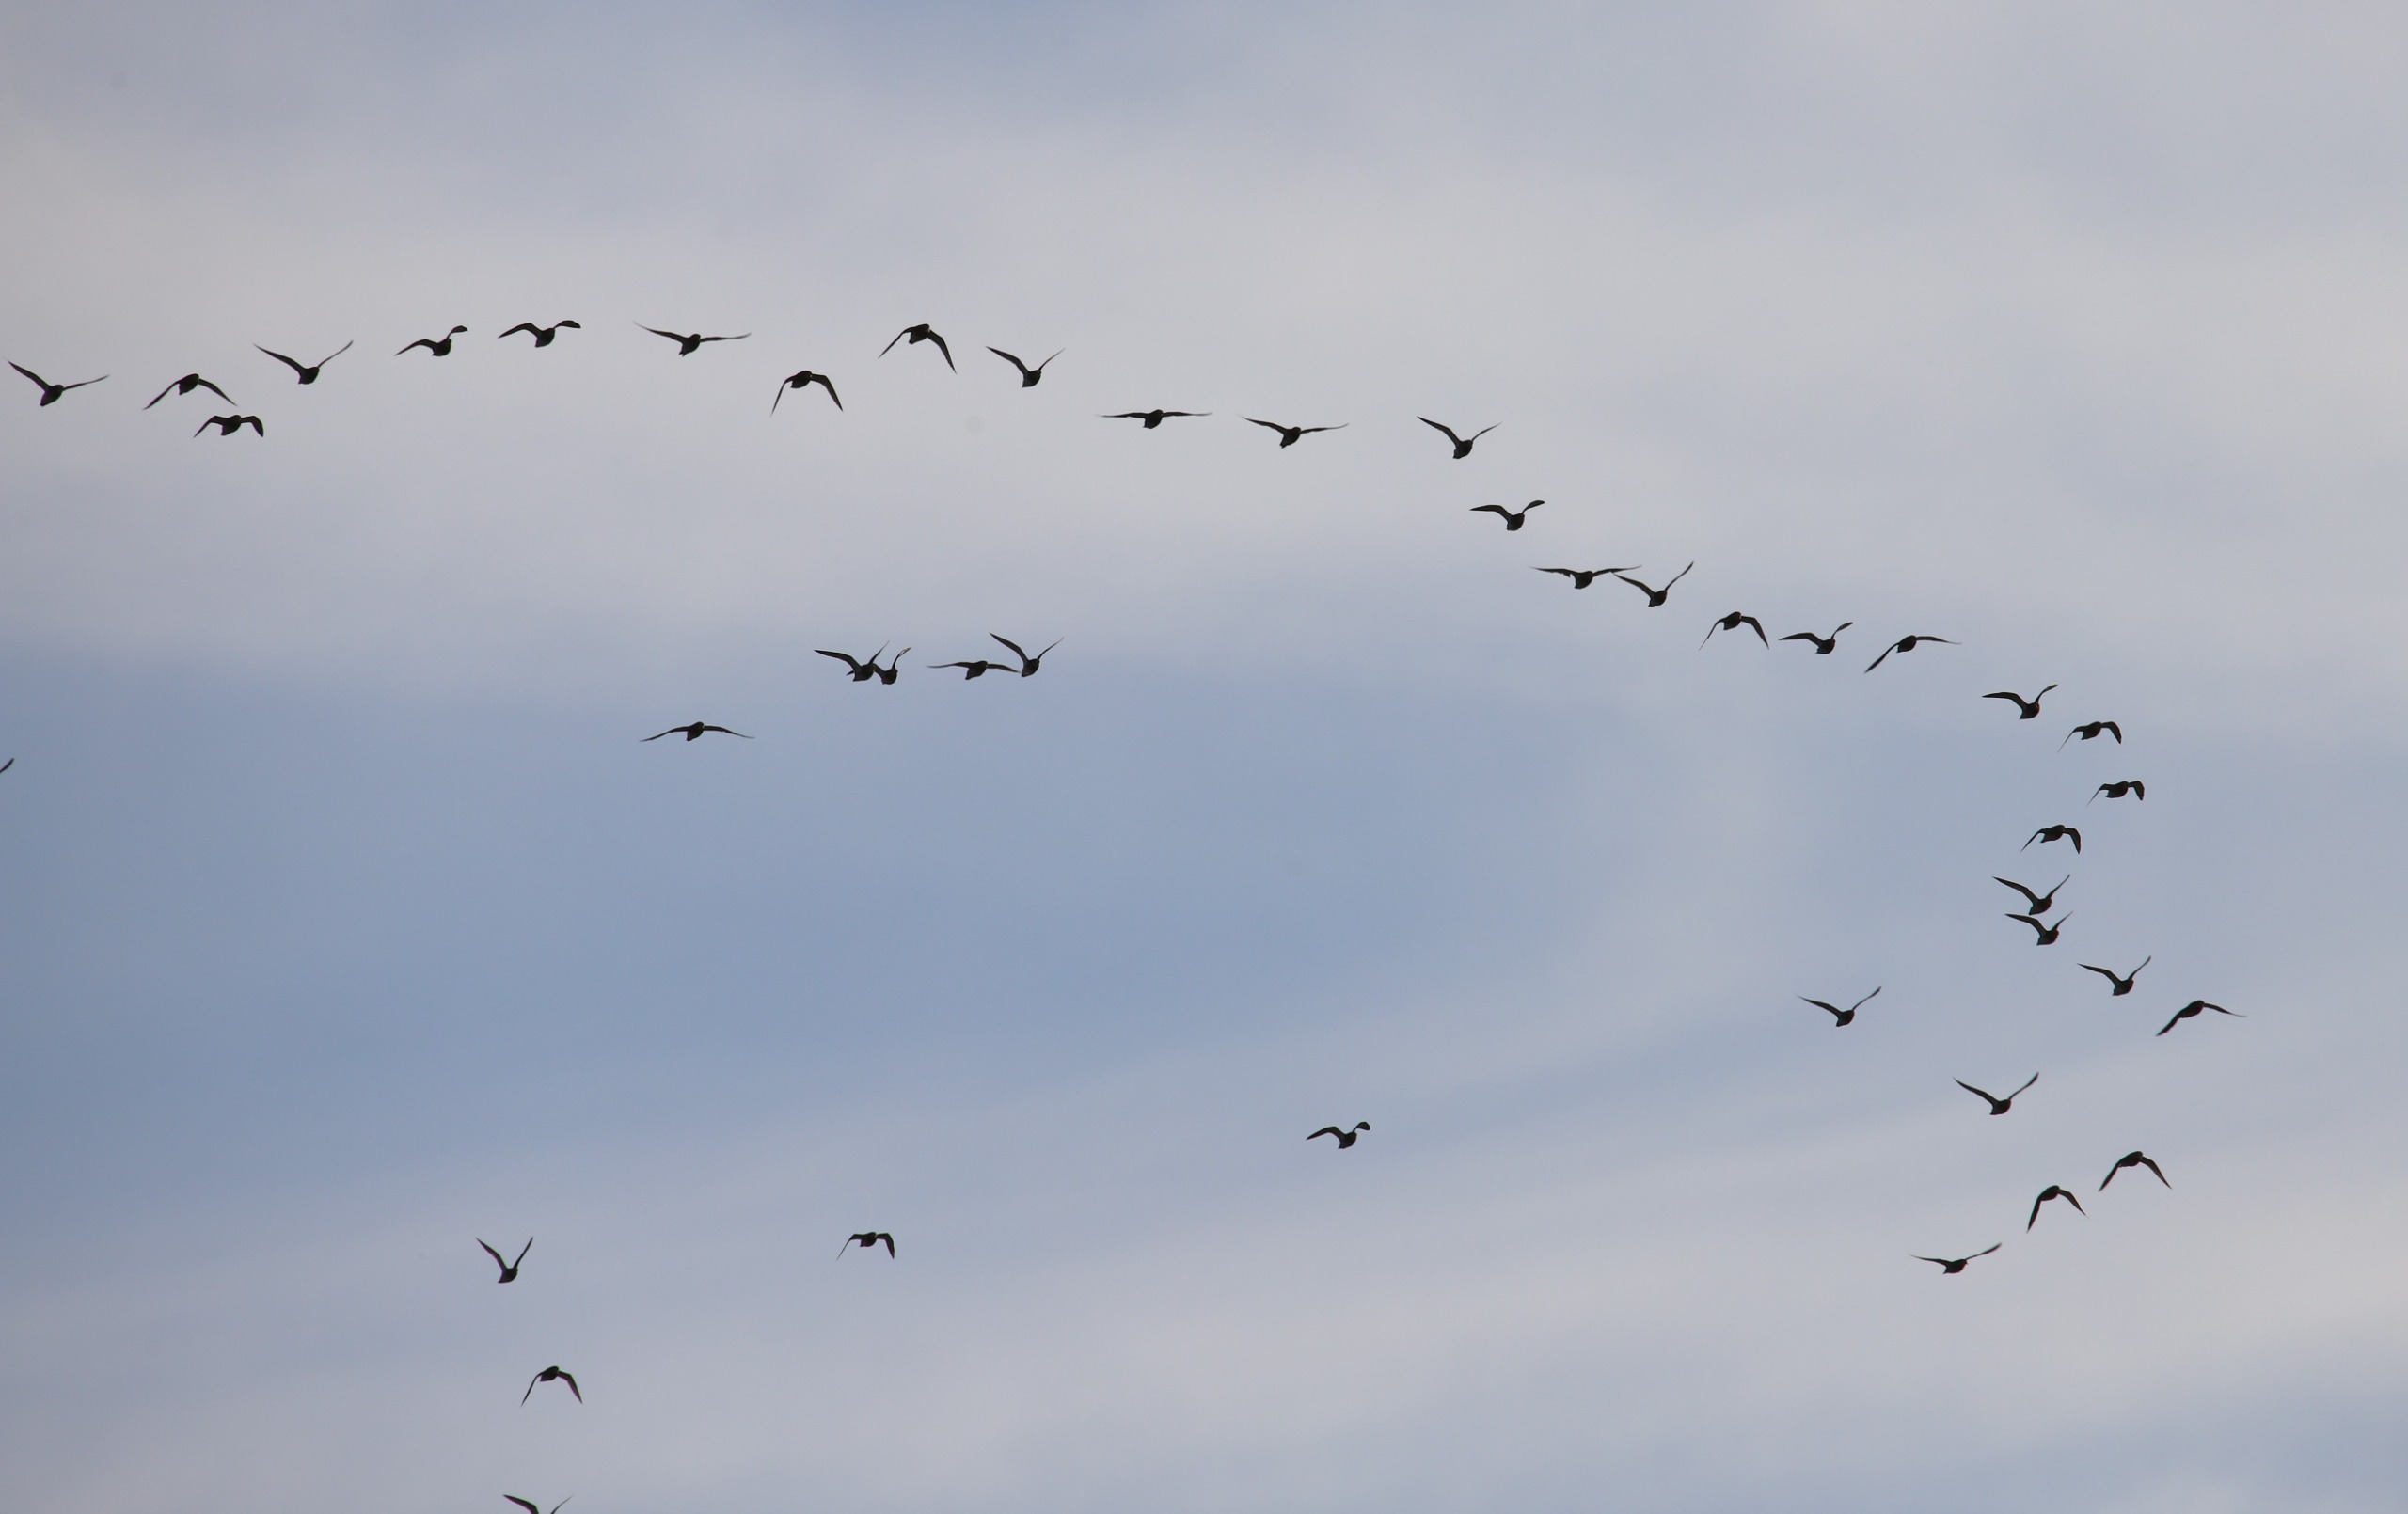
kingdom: Animalia
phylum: Chordata
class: Aves
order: Charadriiformes
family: Charadriidae
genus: Pluvialis
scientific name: Pluvialis apricaria
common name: Hjejle
